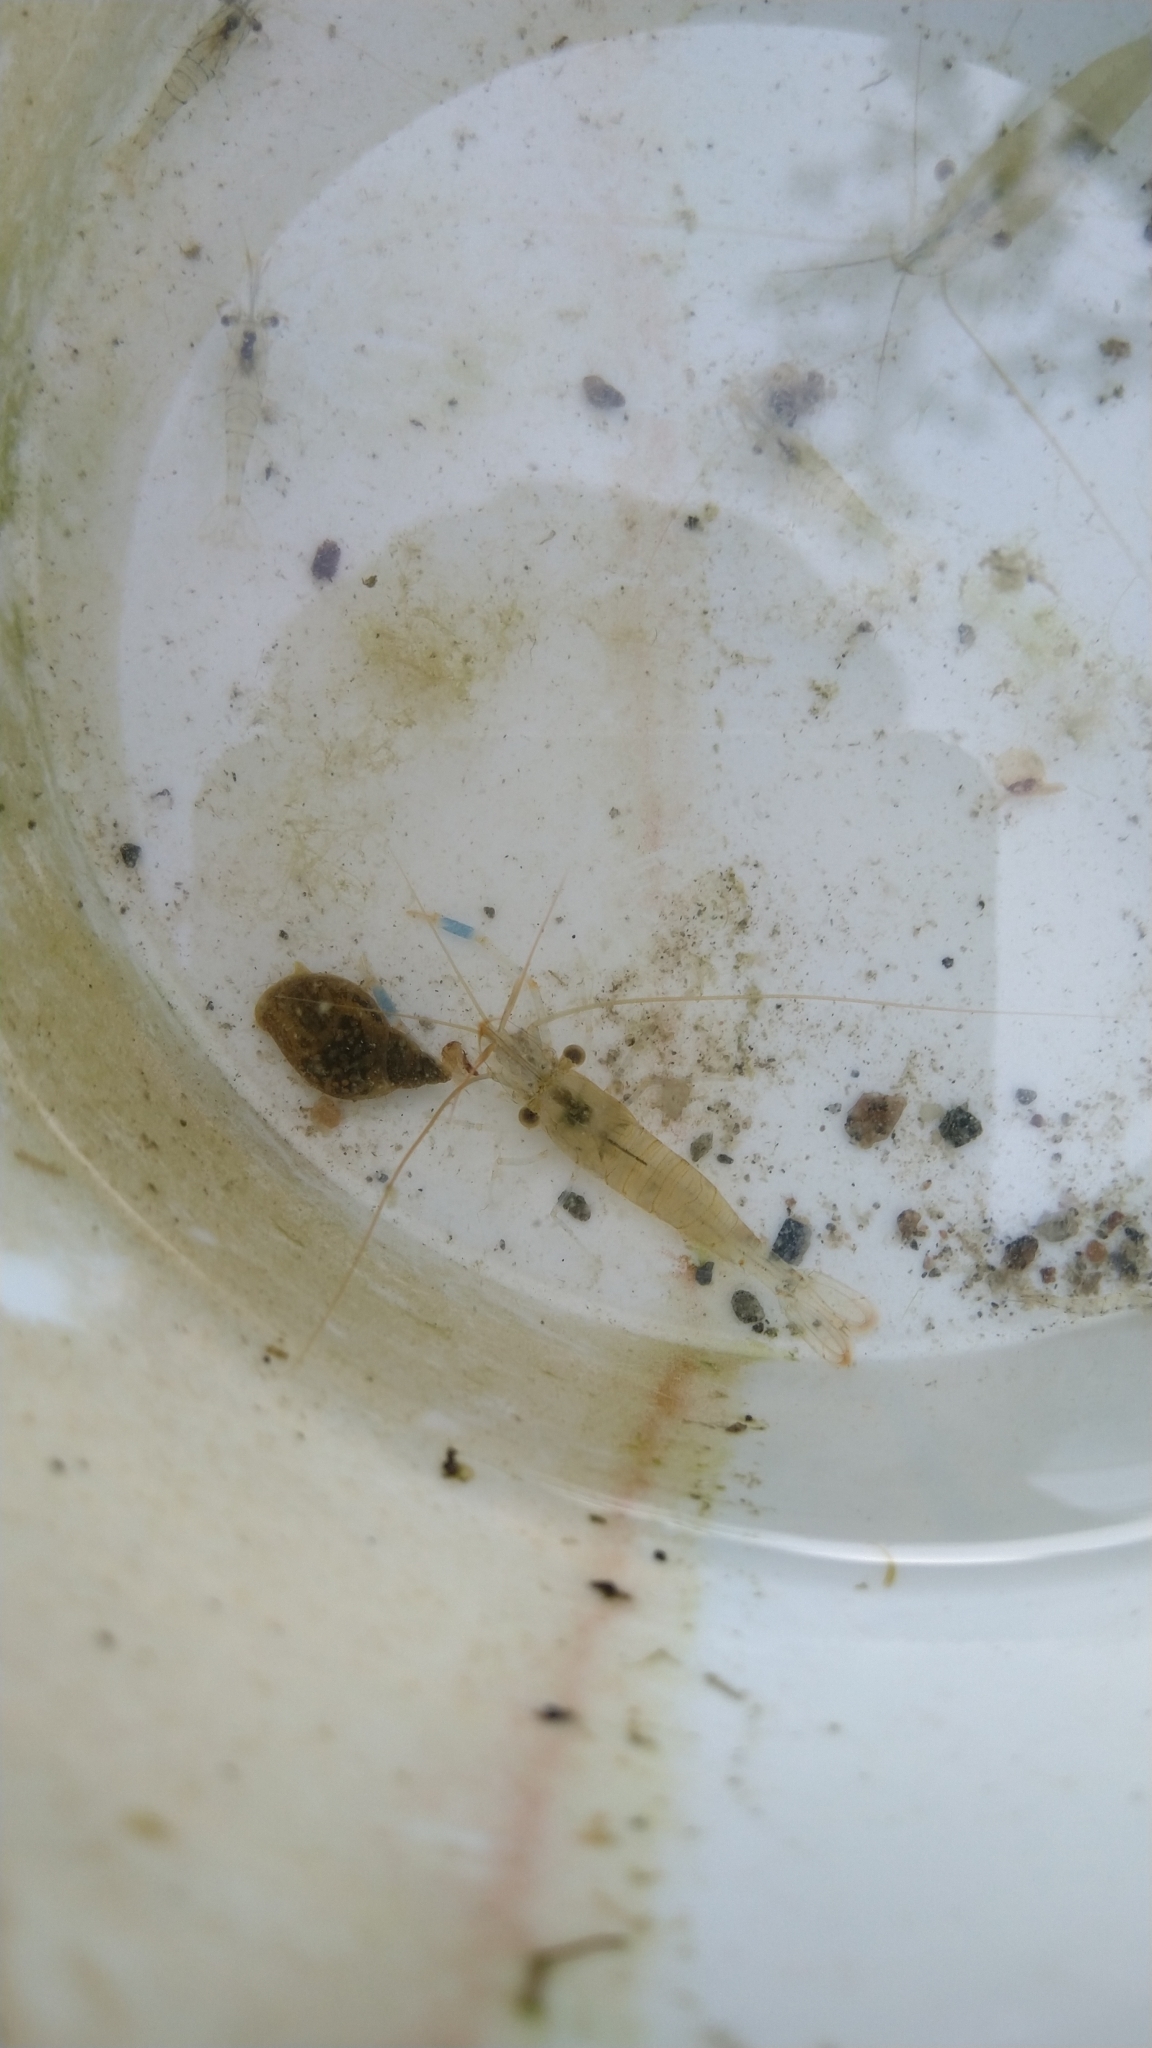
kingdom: Animalia
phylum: Arthropoda
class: Malacostraca
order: Decapoda
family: Palaemonidae
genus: Palaemon
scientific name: Palaemon elegans
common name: Grass prawm
